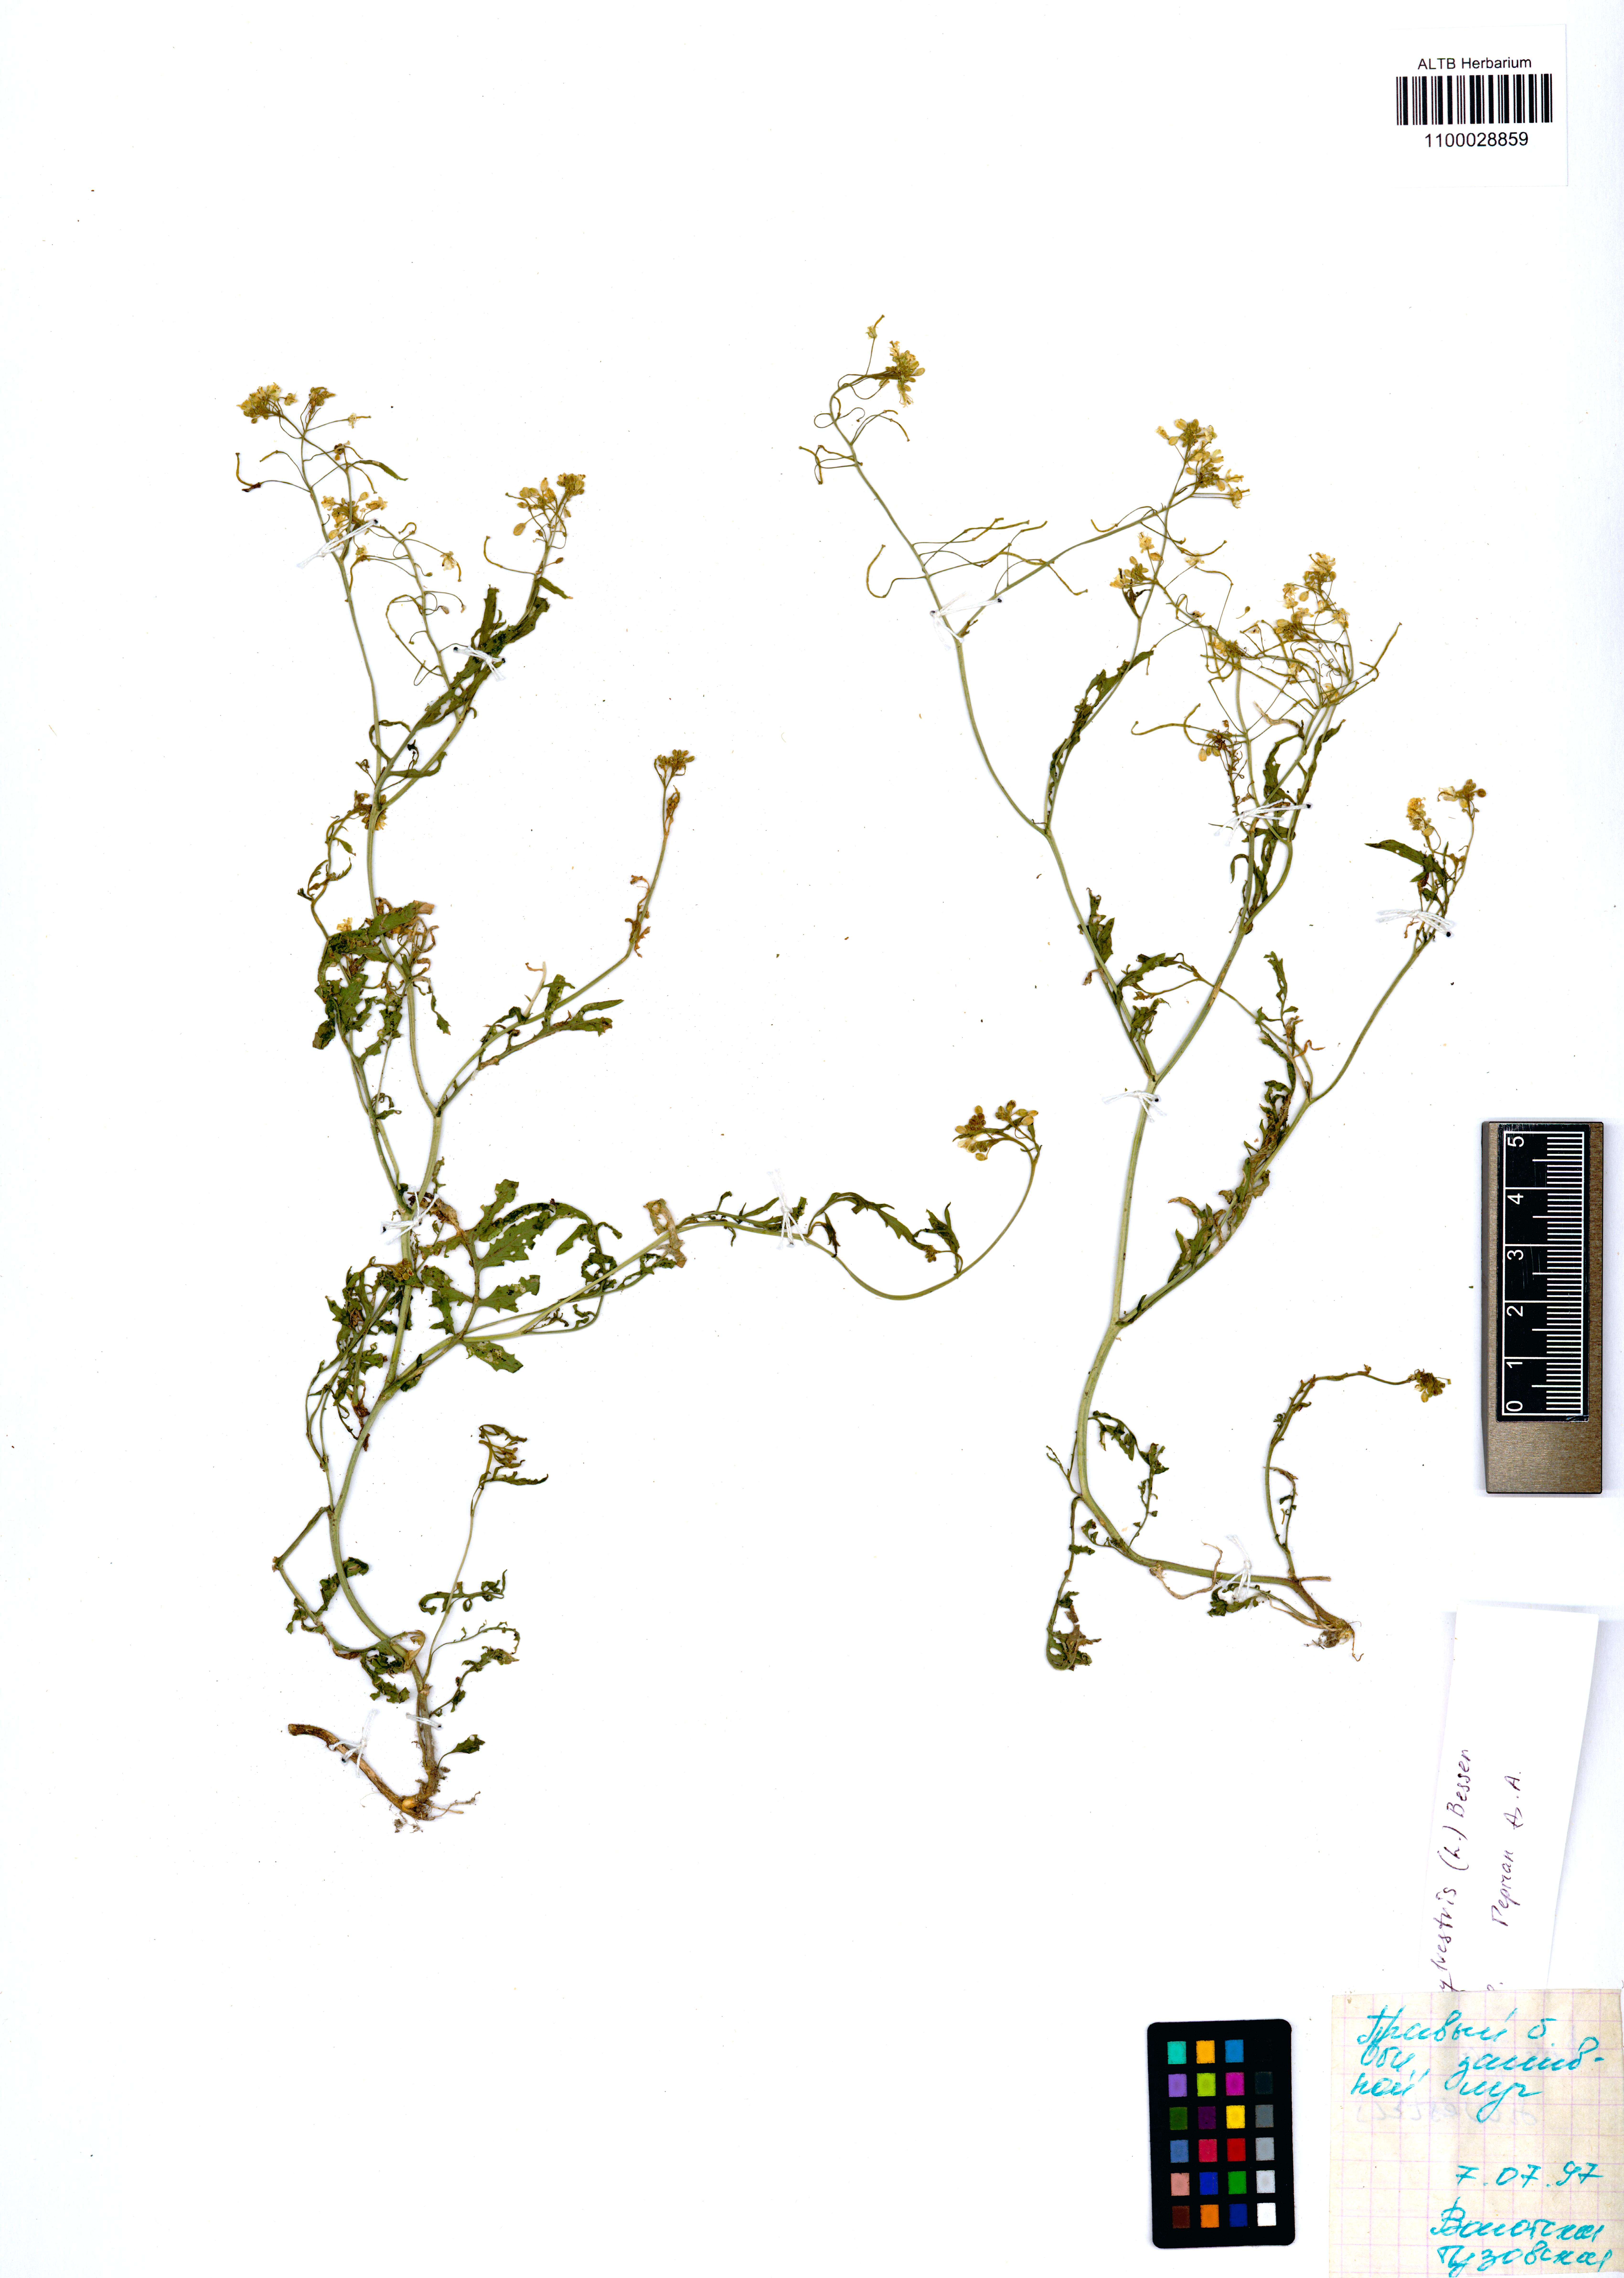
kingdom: Plantae
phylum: Tracheophyta
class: Magnoliopsida
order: Brassicales
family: Brassicaceae
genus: Rorippa
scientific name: Rorippa sylvestris
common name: Creeping yellowcress
